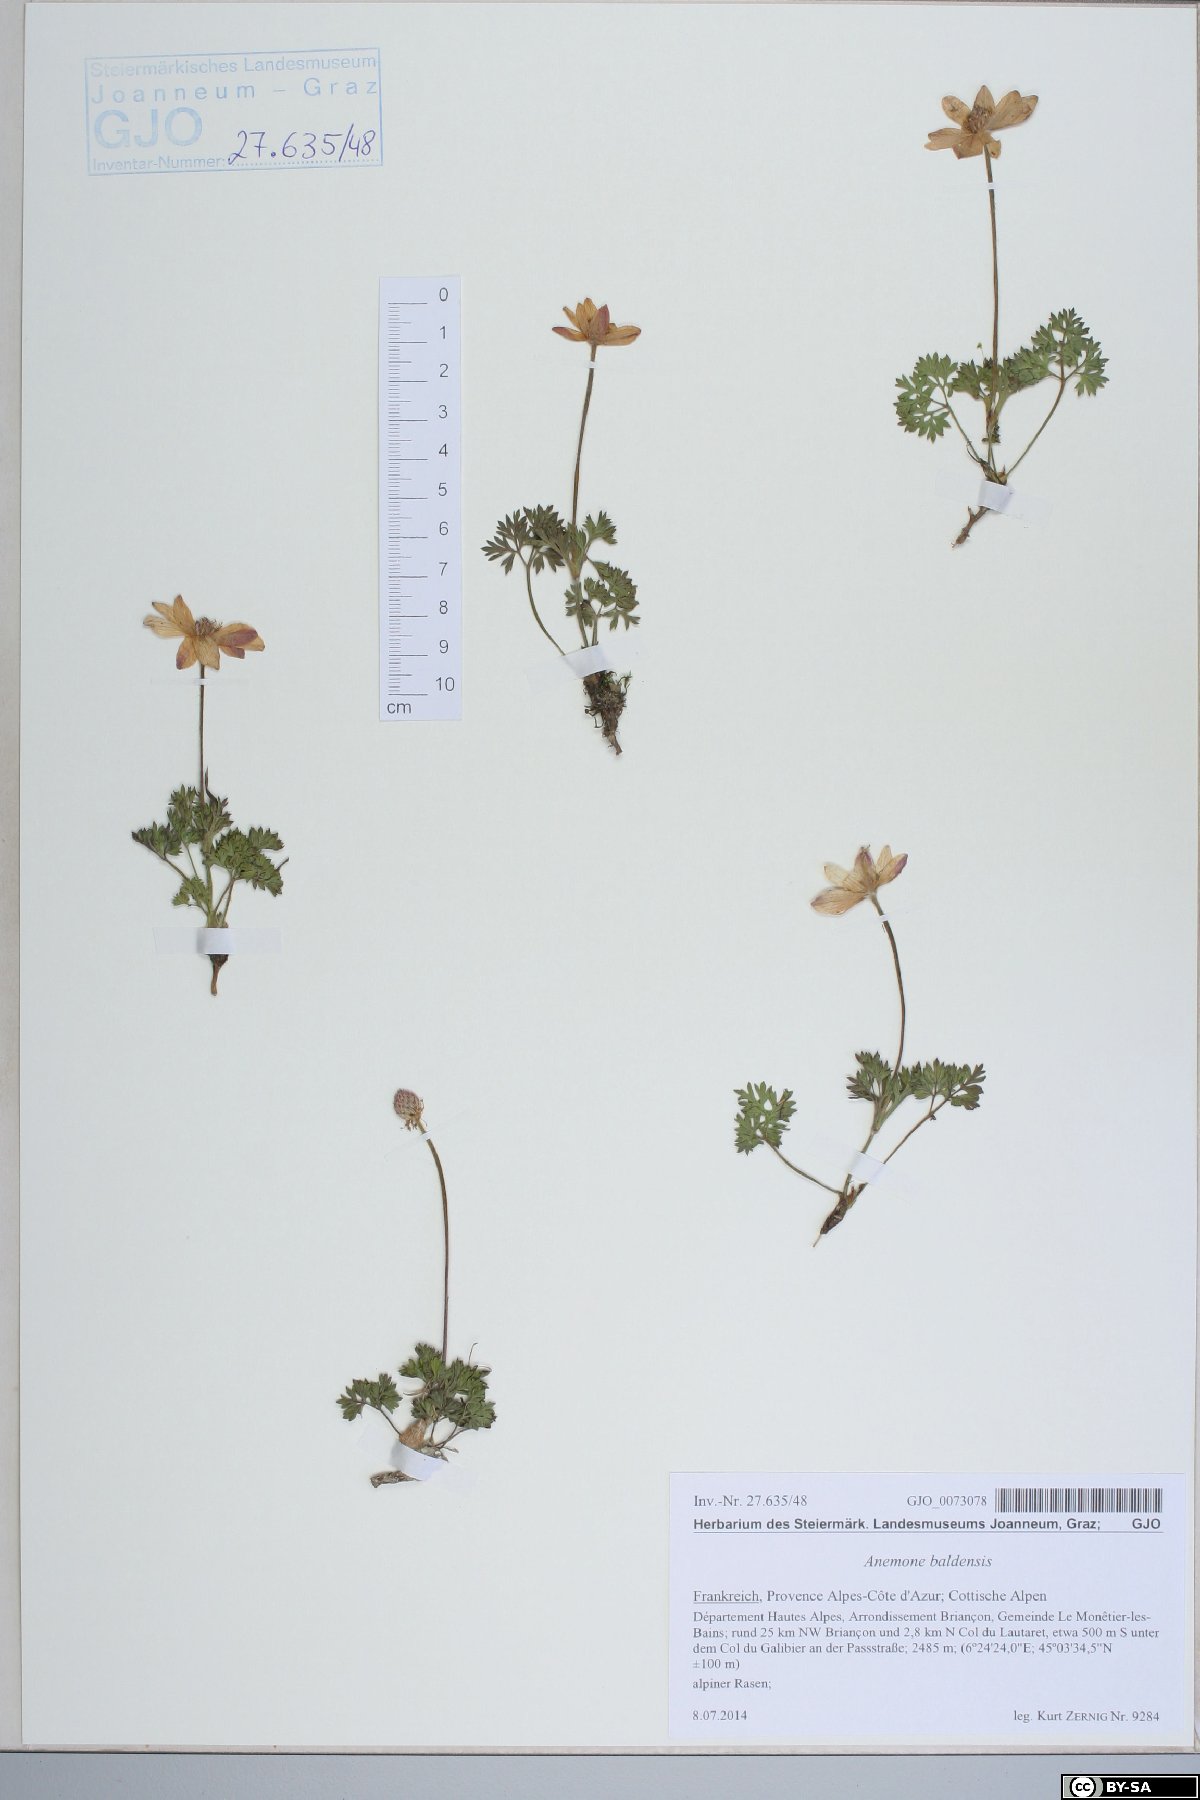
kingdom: Plantae
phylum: Tracheophyta
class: Magnoliopsida
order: Ranunculales
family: Ranunculaceae
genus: Anemone
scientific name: Anemone baldensis
